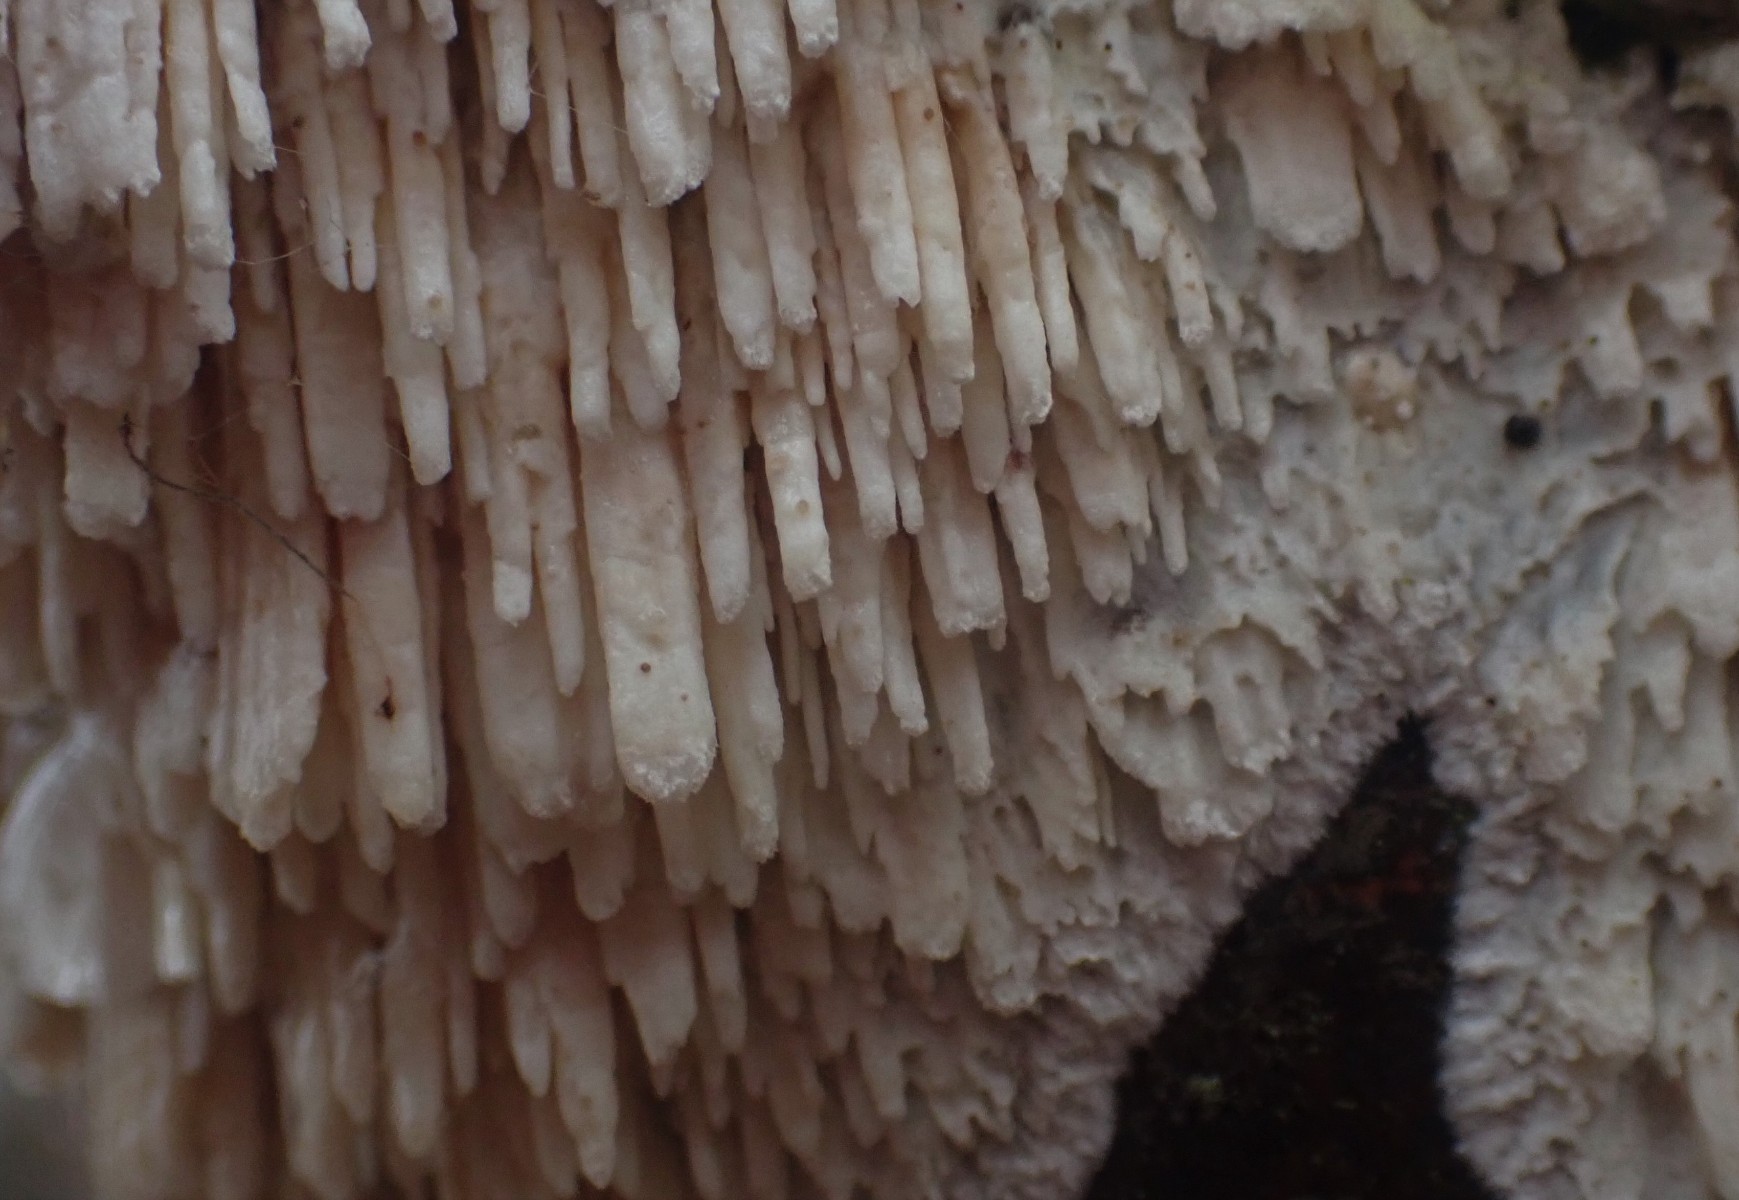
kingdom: Fungi
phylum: Basidiomycota
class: Agaricomycetes
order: Hymenochaetales
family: Schizoporaceae
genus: Xylodon
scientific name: Xylodon radula
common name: grovtandet kalkskind
